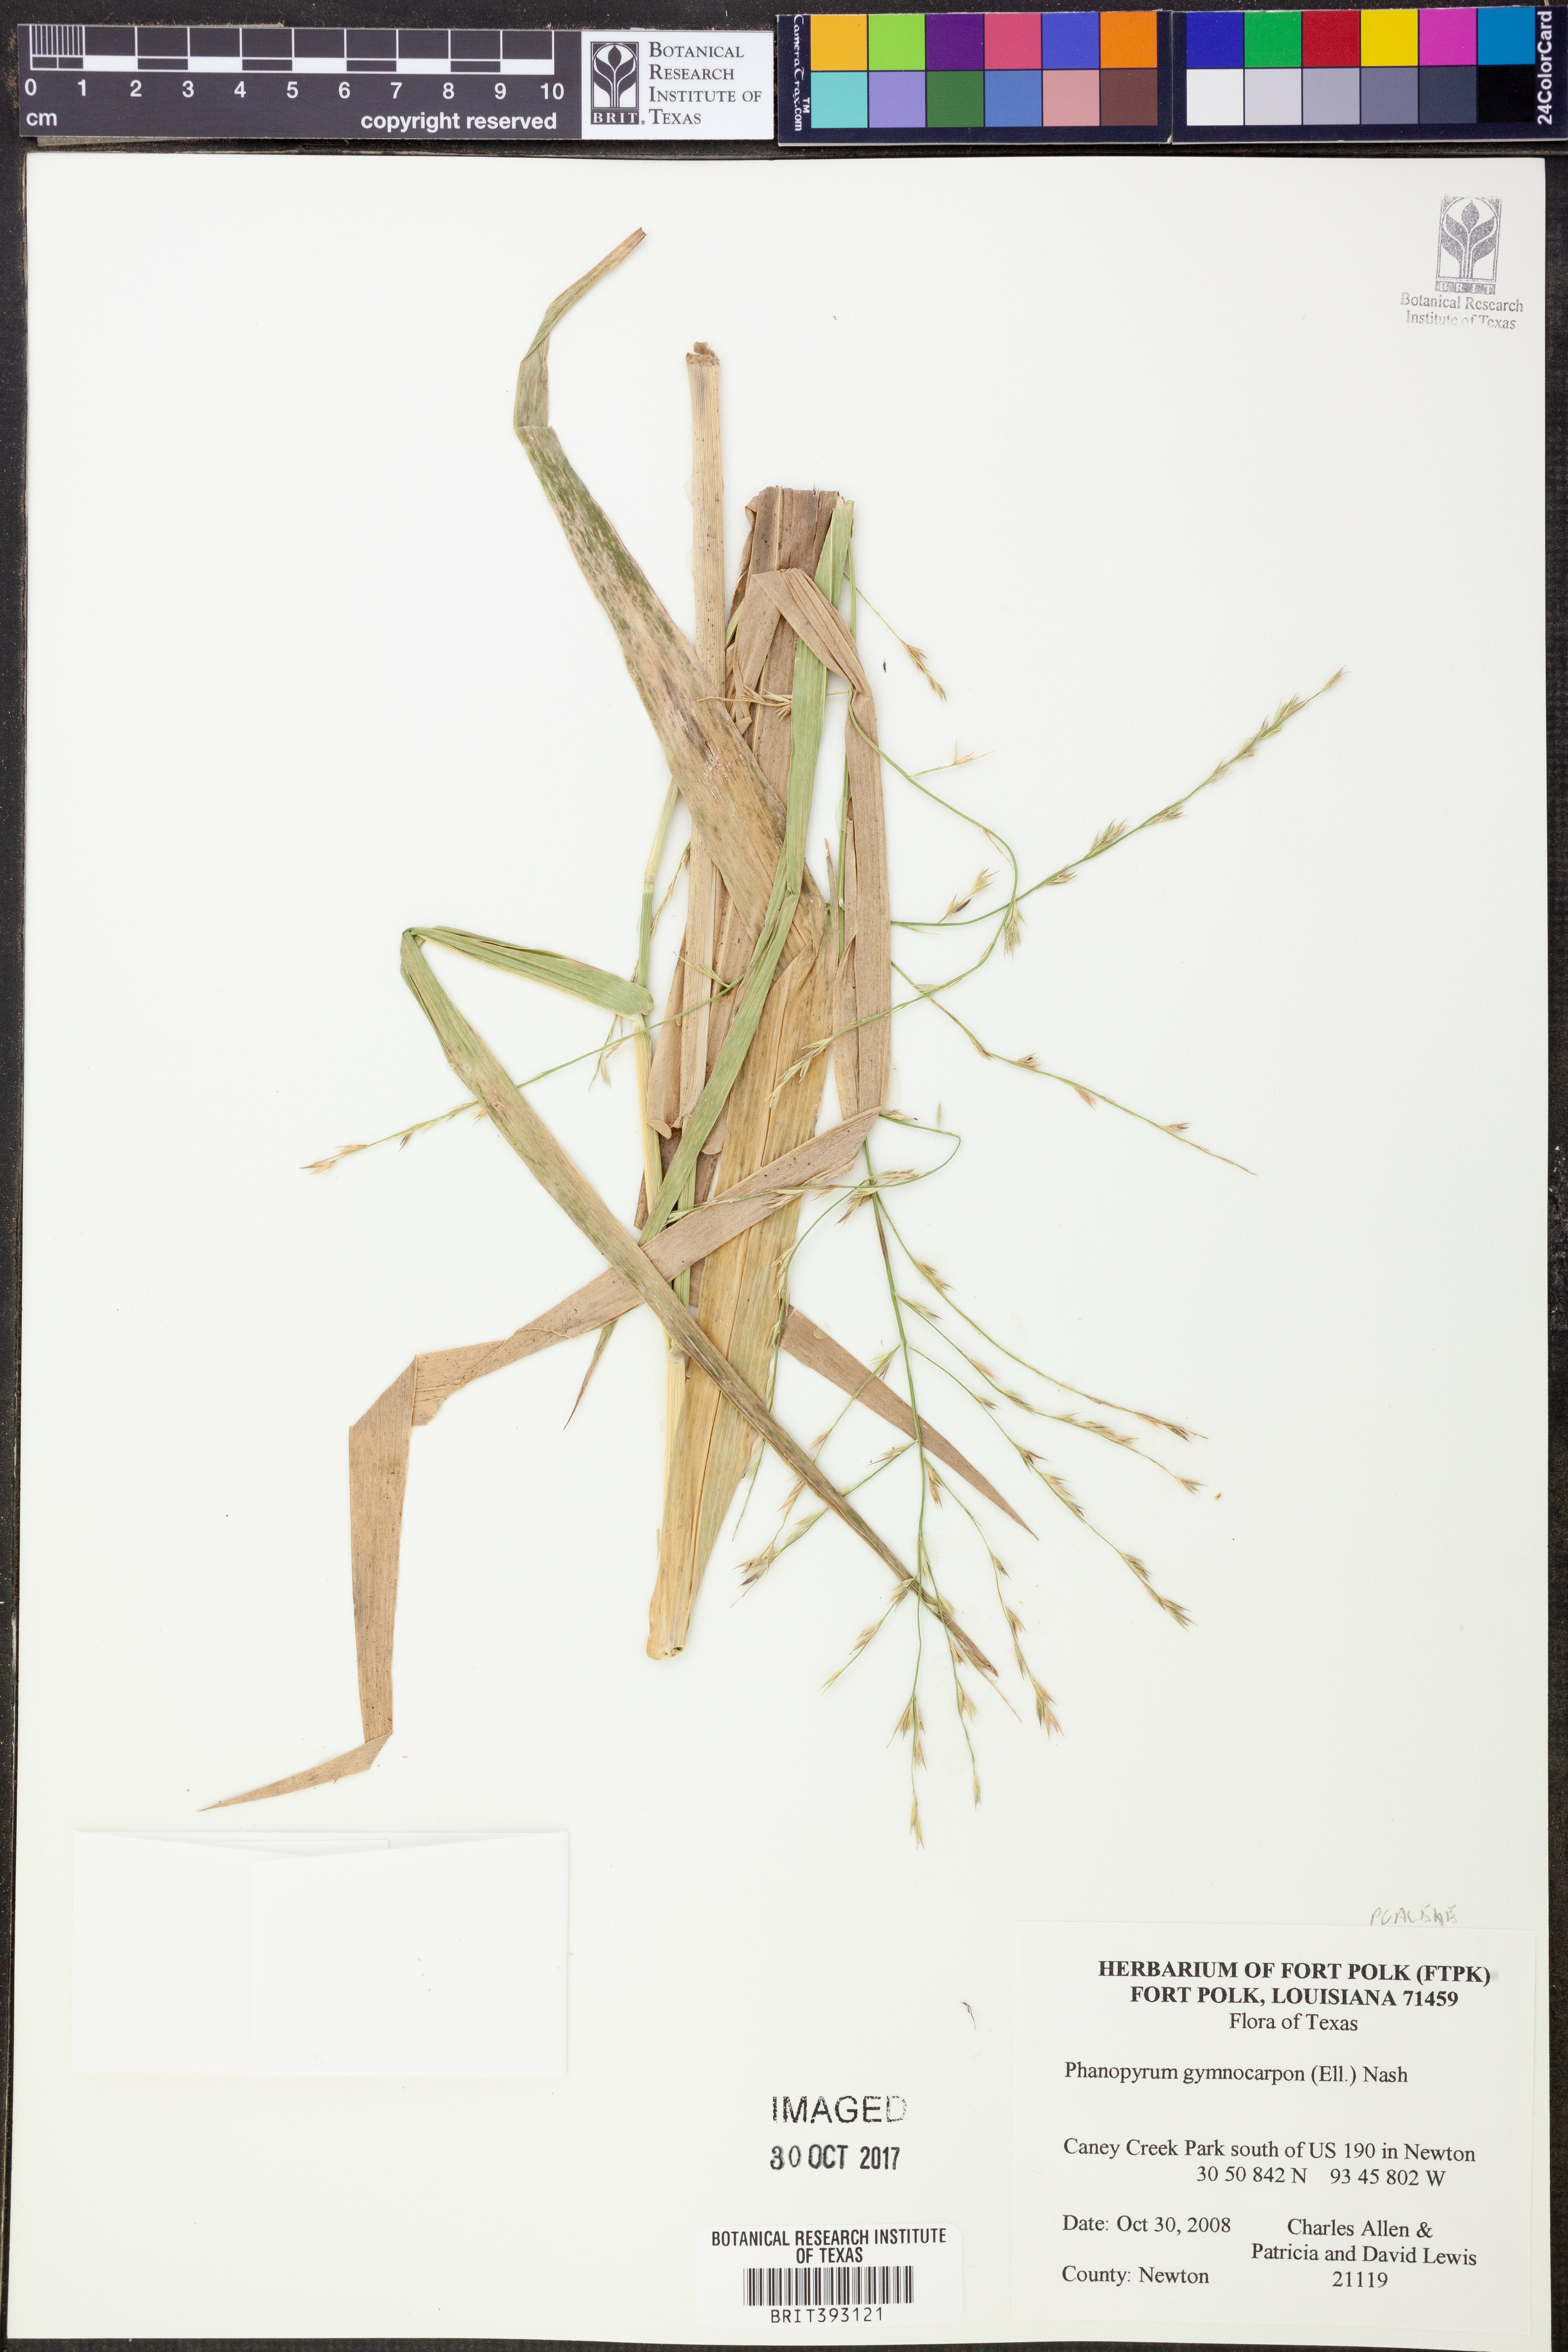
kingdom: Plantae
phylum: Tracheophyta
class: Liliopsida
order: Poales
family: Poaceae
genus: Panicum
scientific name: Panicum gymnocarpon
